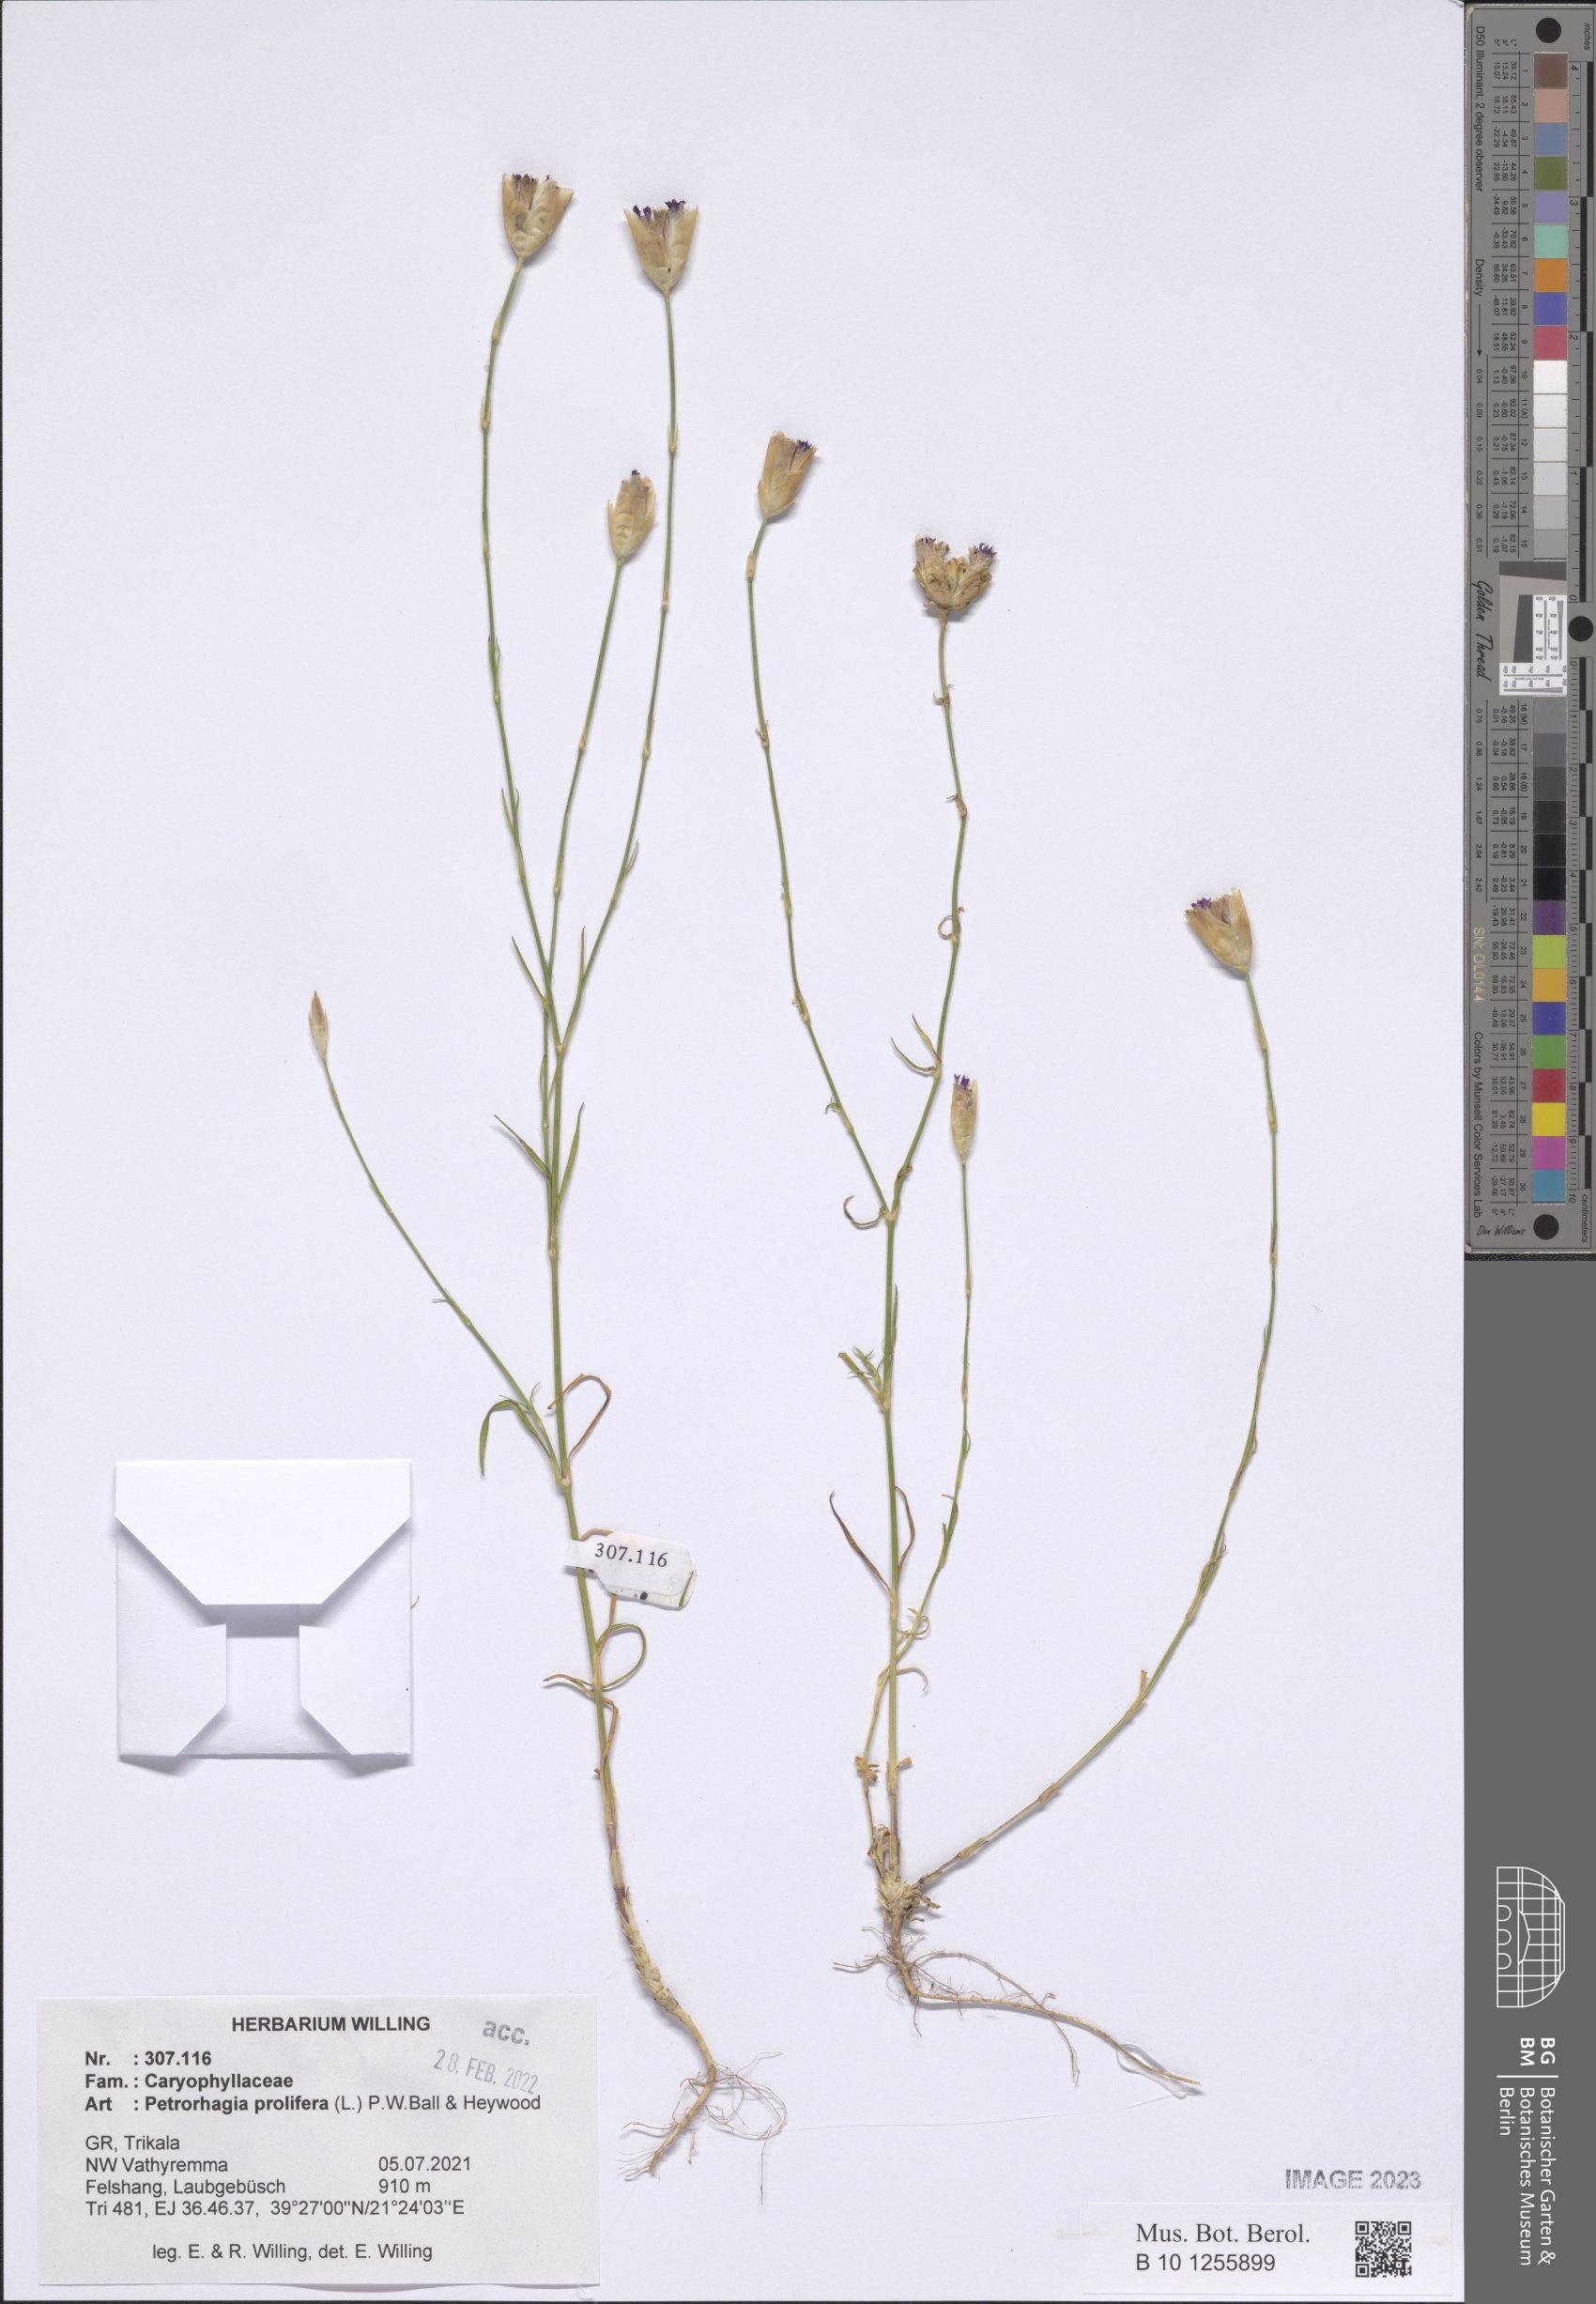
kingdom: Plantae
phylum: Tracheophyta
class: Magnoliopsida
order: Caryophyllales
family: Caryophyllaceae
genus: Petrorhagia
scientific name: Petrorhagia prolifera
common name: Proliferous pink
